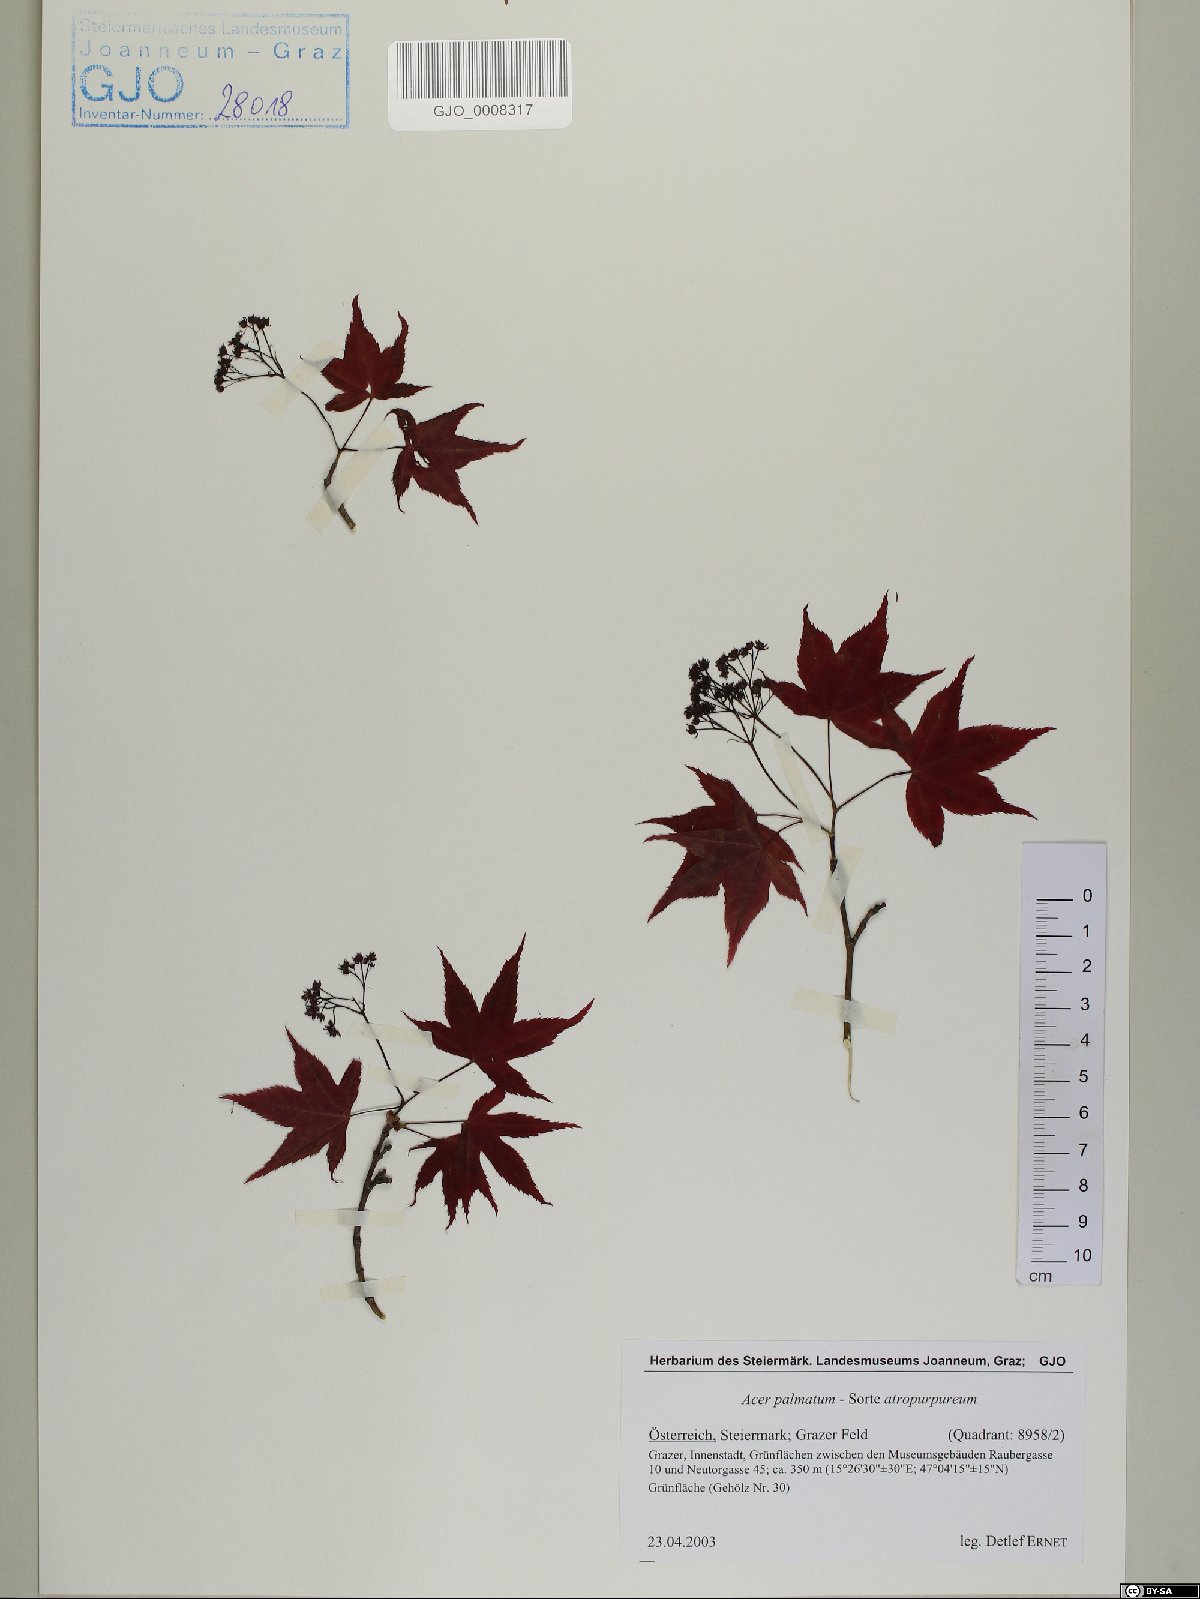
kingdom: Plantae
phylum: Tracheophyta
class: Magnoliopsida
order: Sapindales
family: Sapindaceae
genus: Acer
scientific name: Acer palmatum
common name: Japanese maple
